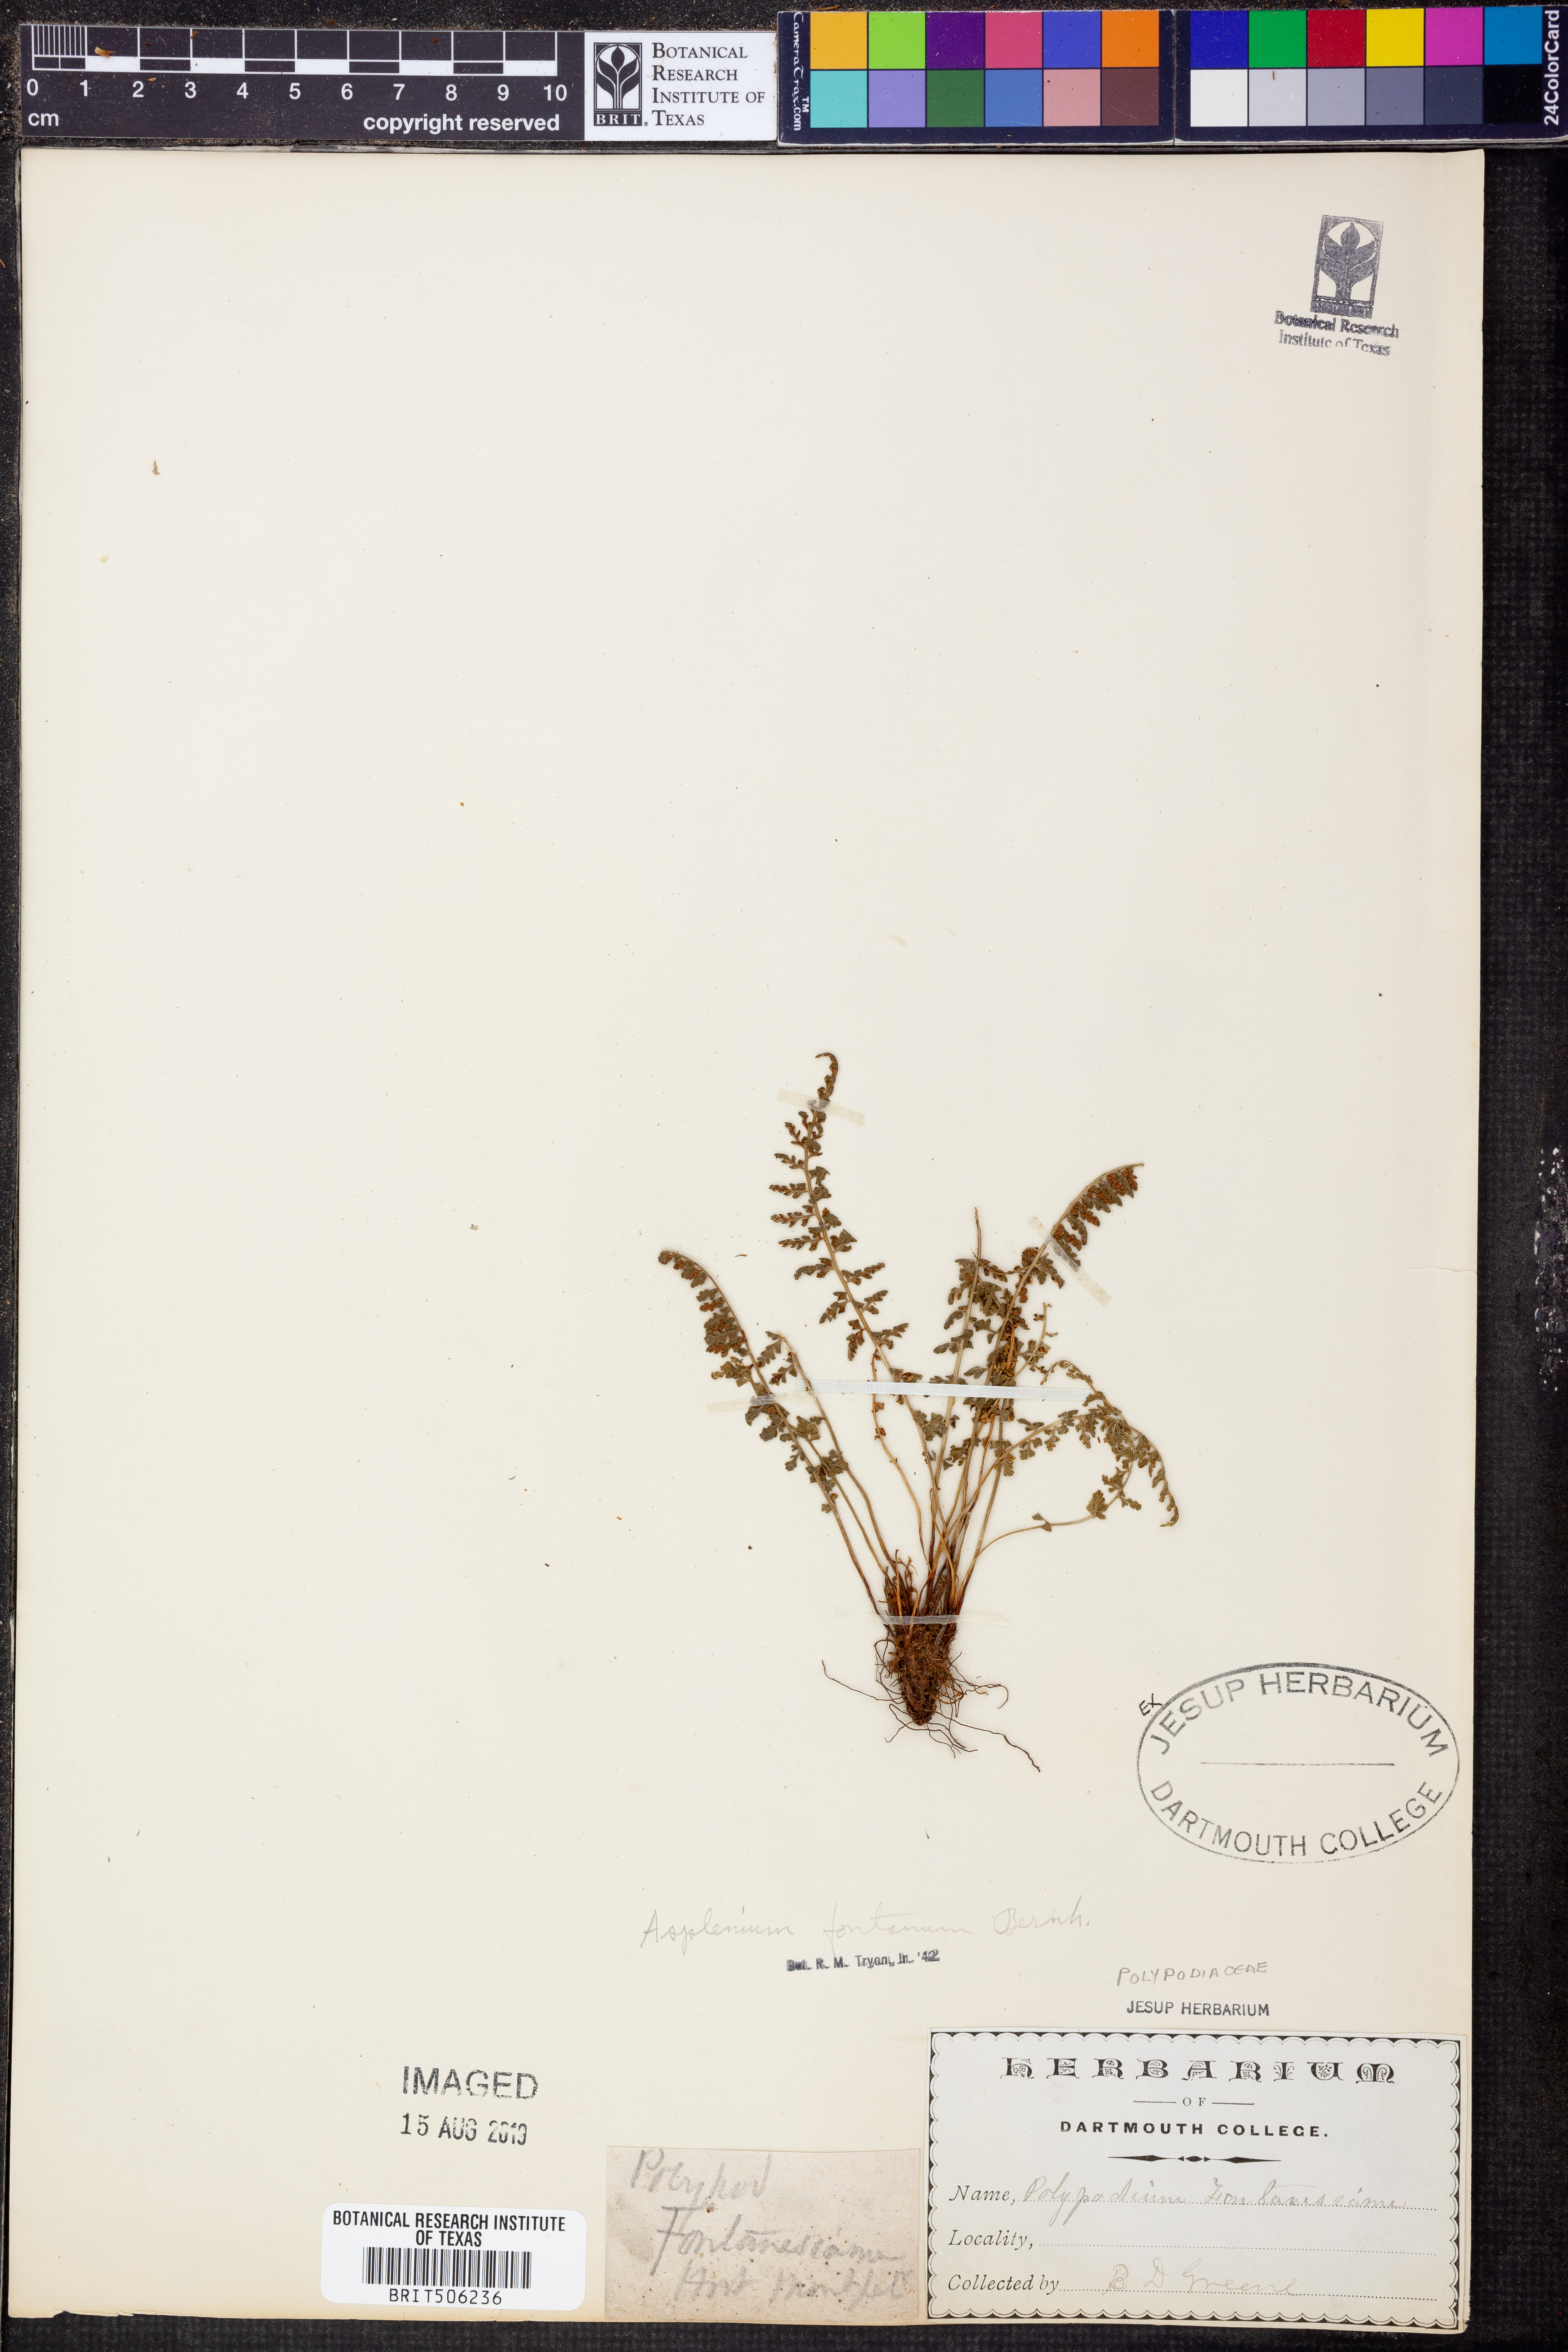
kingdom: Plantae
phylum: Tracheophyta
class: Polypodiopsida
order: Polypodiales
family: Aspleniaceae
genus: Asplenium
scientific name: Asplenium fontanum
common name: Fountain spleenwort
